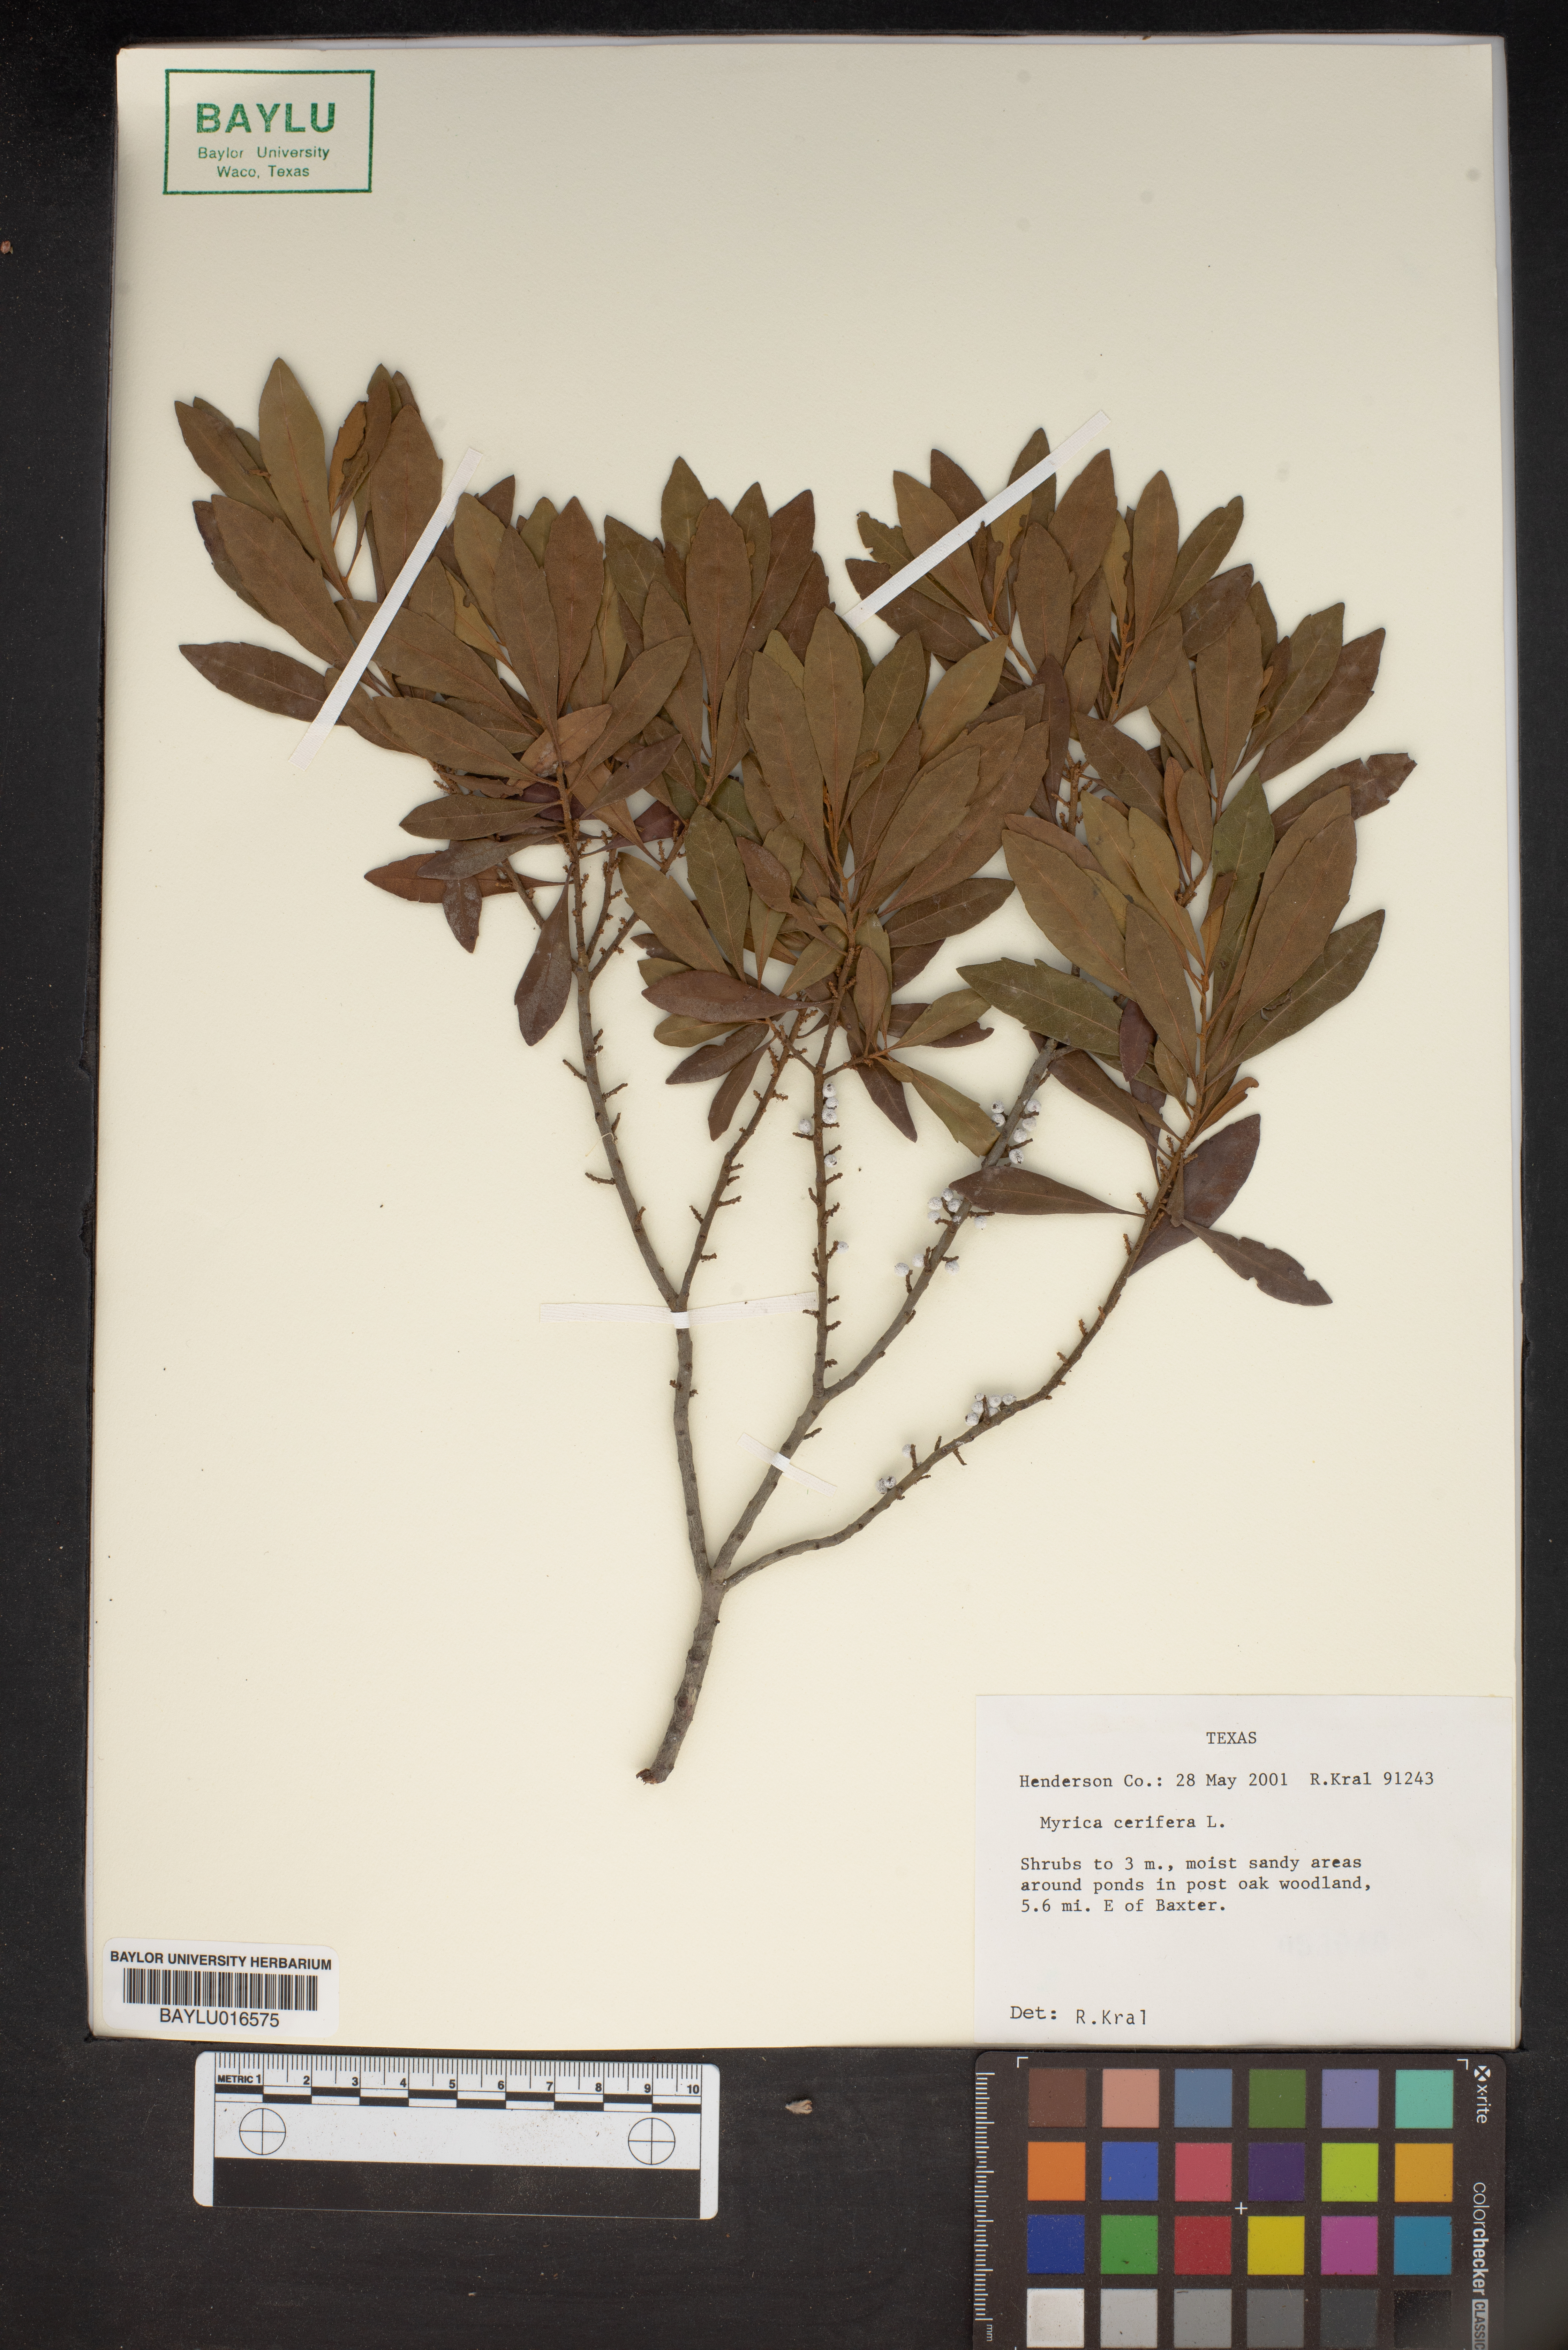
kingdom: Plantae
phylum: Tracheophyta
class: Magnoliopsida
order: Fagales
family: Myricaceae
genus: Morella
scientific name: Morella cerifera
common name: Wax myrtle
